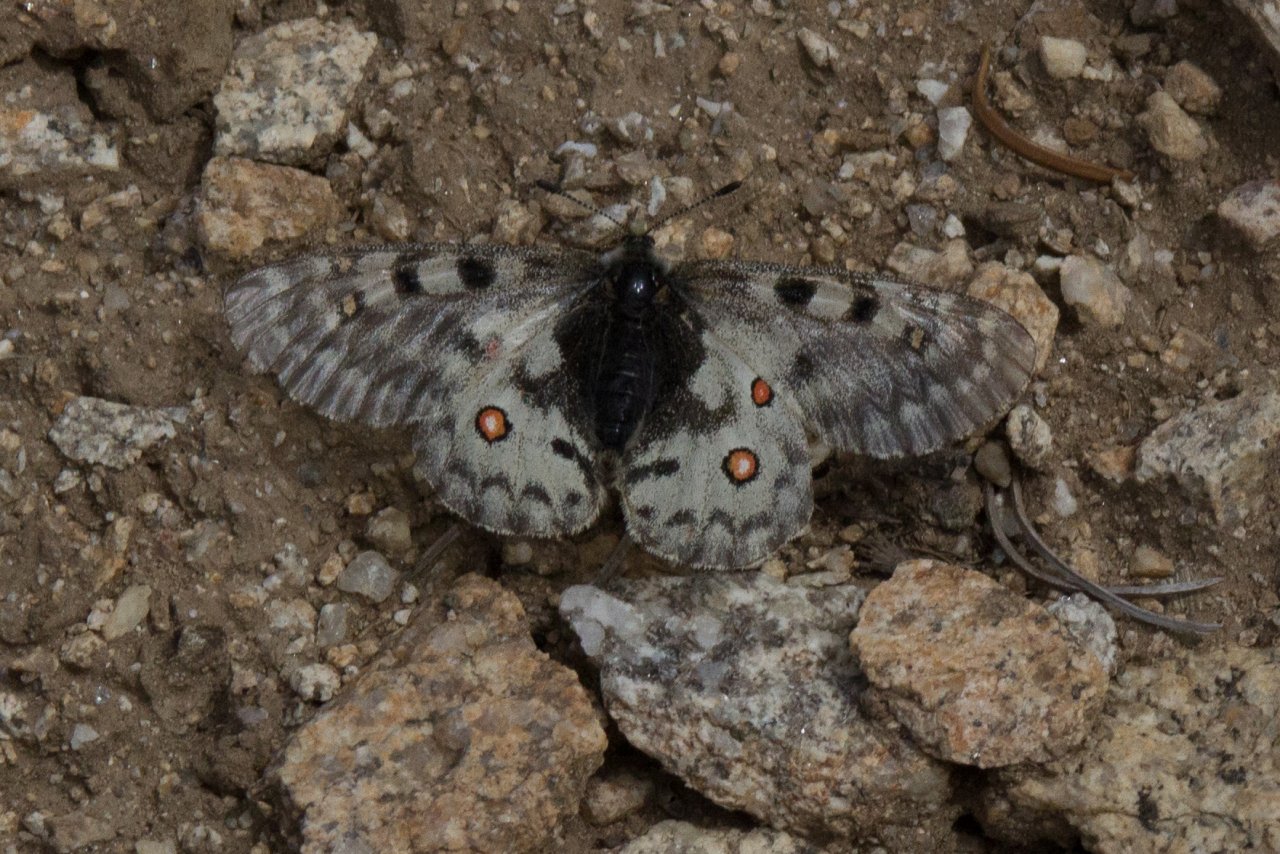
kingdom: Animalia
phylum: Arthropoda
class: Insecta
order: Lepidoptera
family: Papilionidae
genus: Parnassius
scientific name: Parnassius smintheus
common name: Rocky Mountain Parnassian
